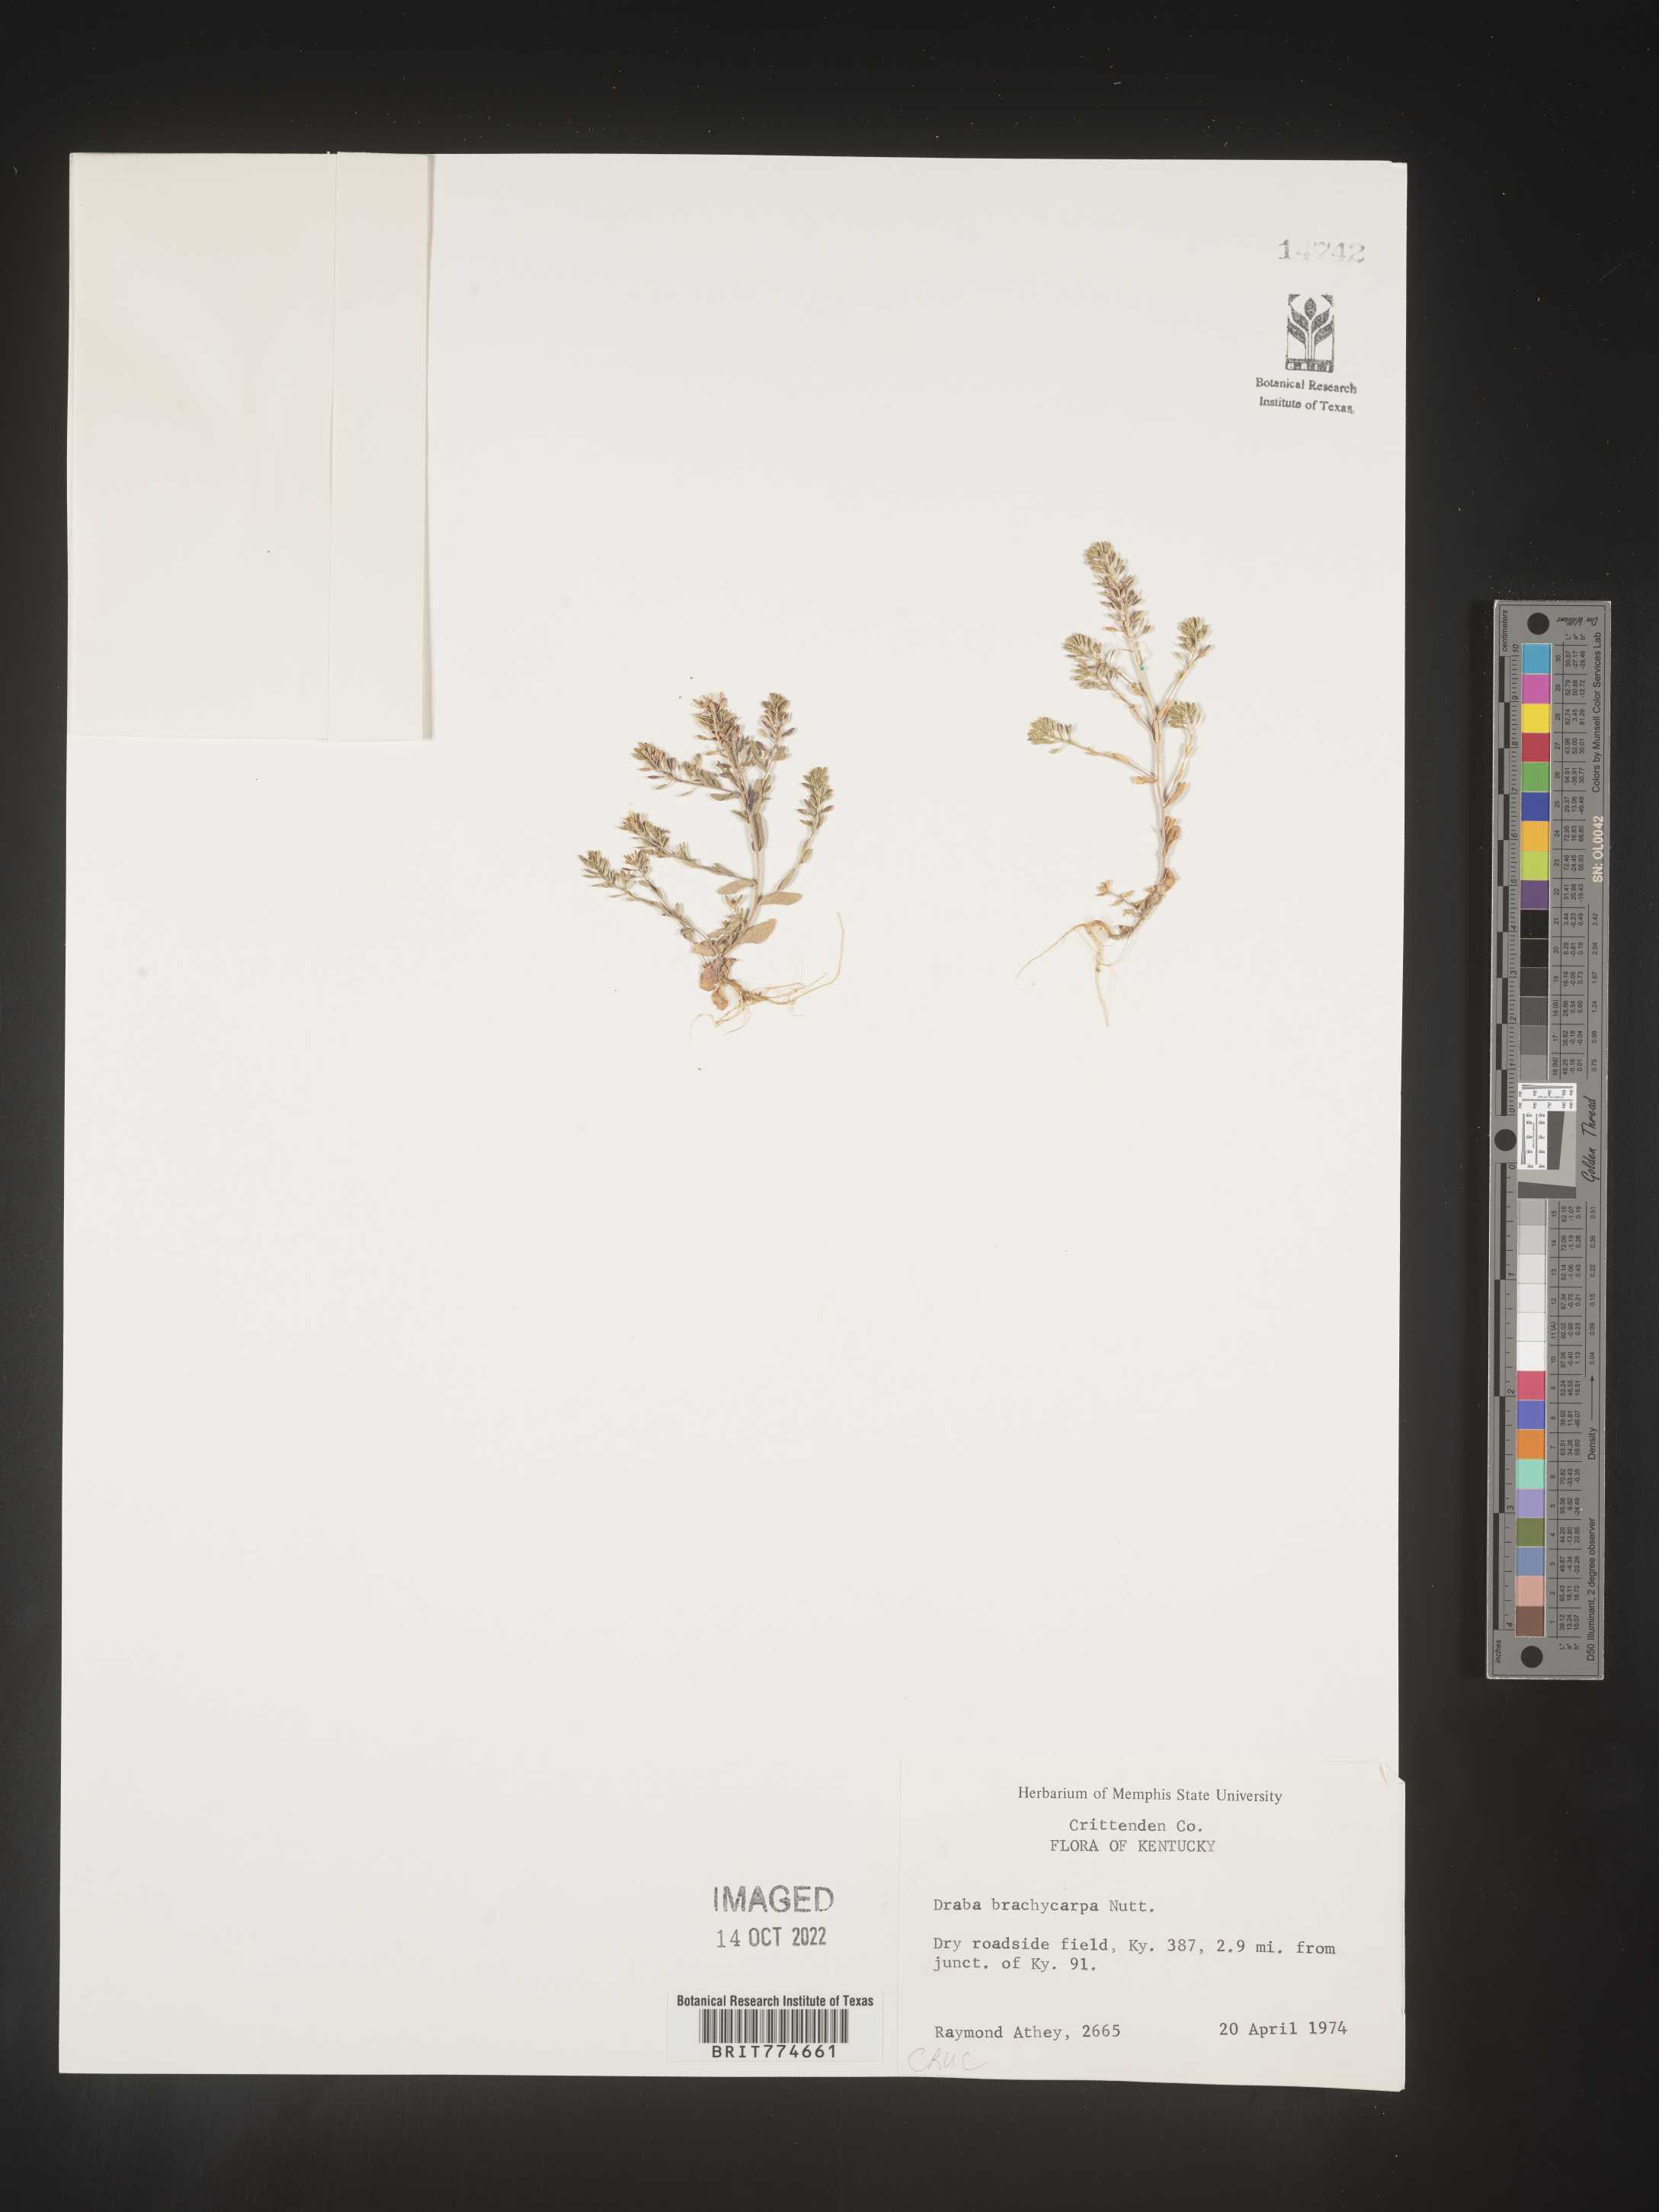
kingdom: Plantae
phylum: Tracheophyta
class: Magnoliopsida
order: Brassicales
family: Brassicaceae
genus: Abdra
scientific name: Abdra brachycarpa
